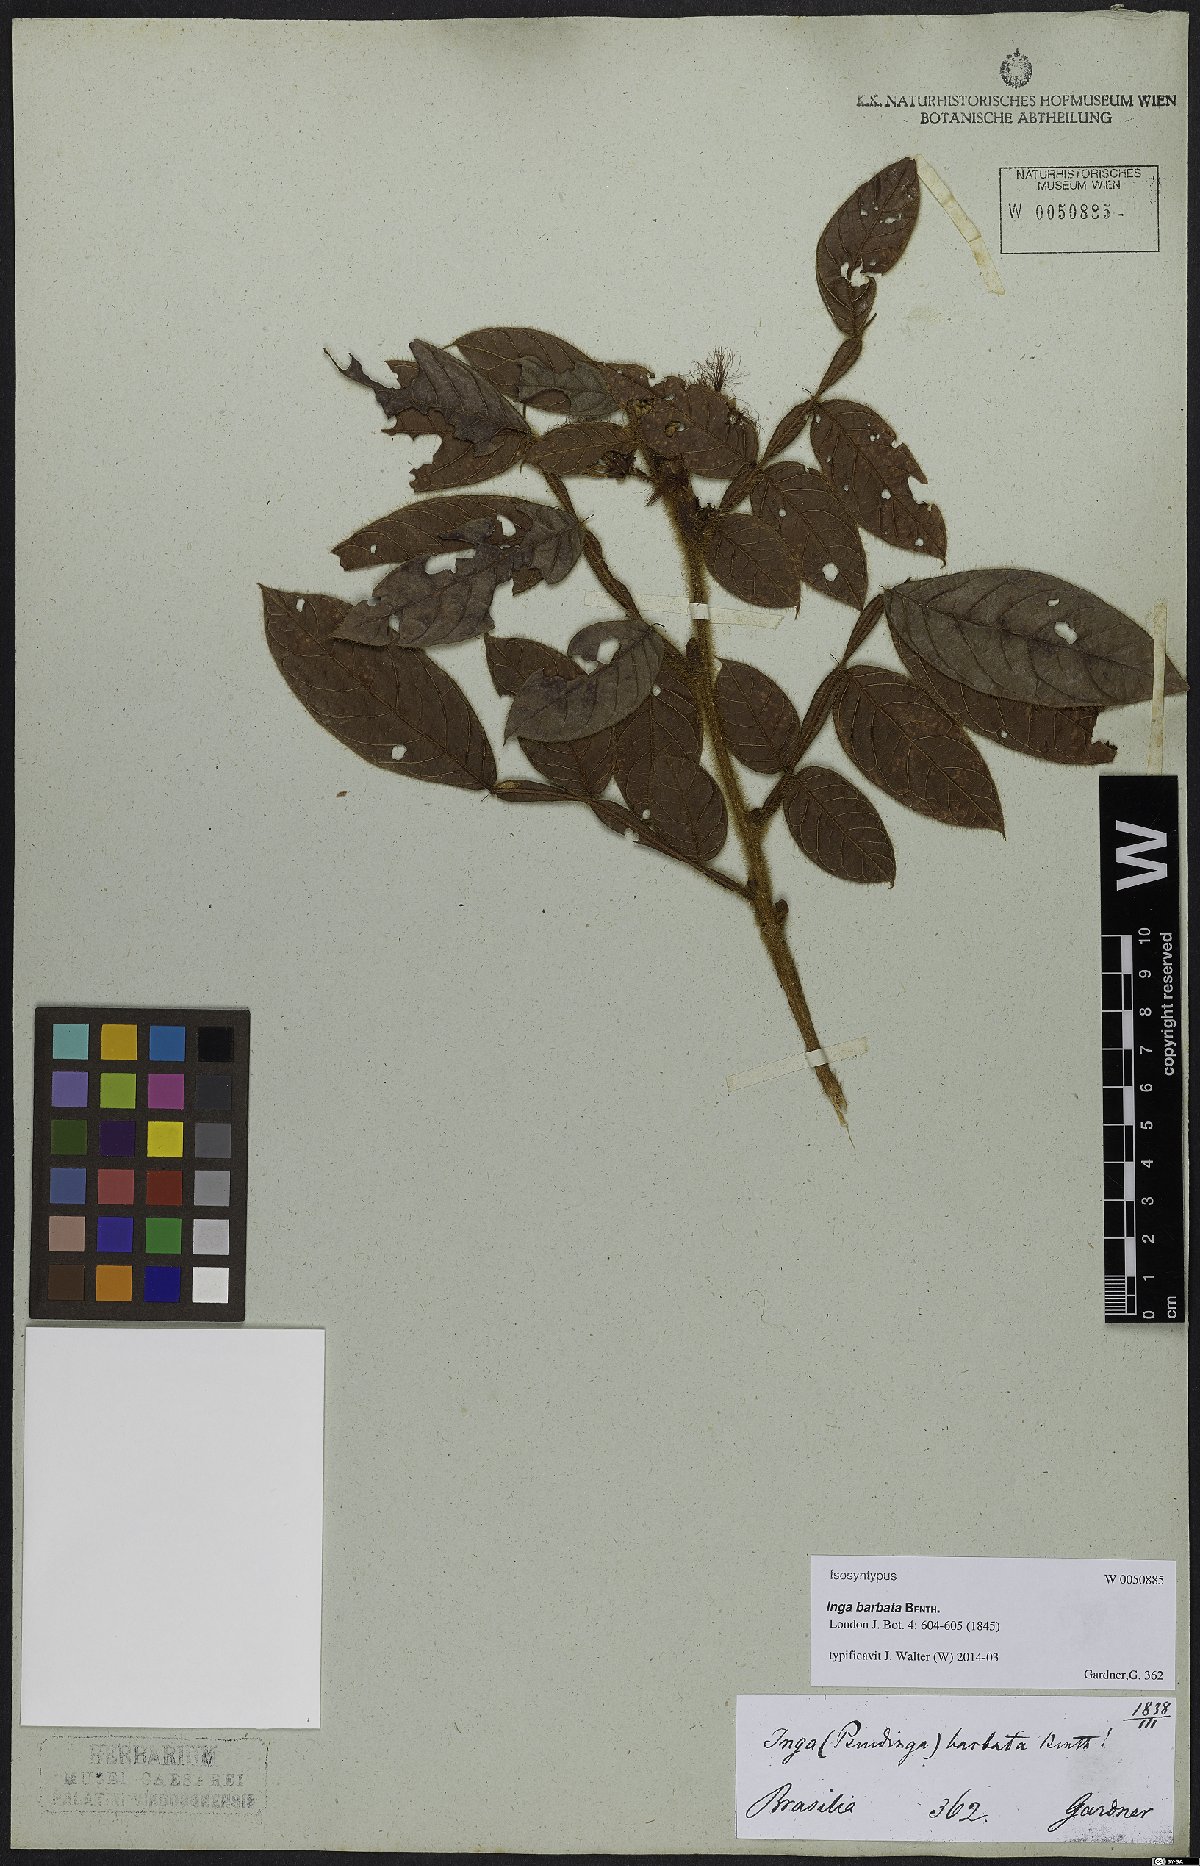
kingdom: Plantae
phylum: Tracheophyta
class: Magnoliopsida
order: Fabales
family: Fabaceae
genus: Inga
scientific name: Inga barbata
